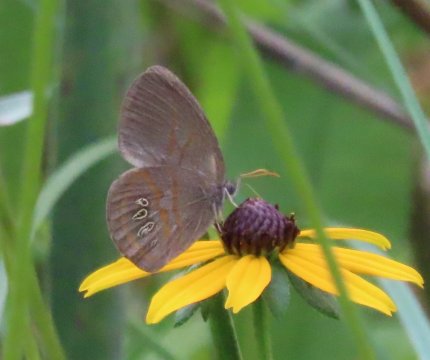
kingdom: Animalia
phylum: Arthropoda
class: Insecta
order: Lepidoptera
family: Nymphalidae
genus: Euptychia
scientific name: Euptychia phocion
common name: Georgia Satyr
